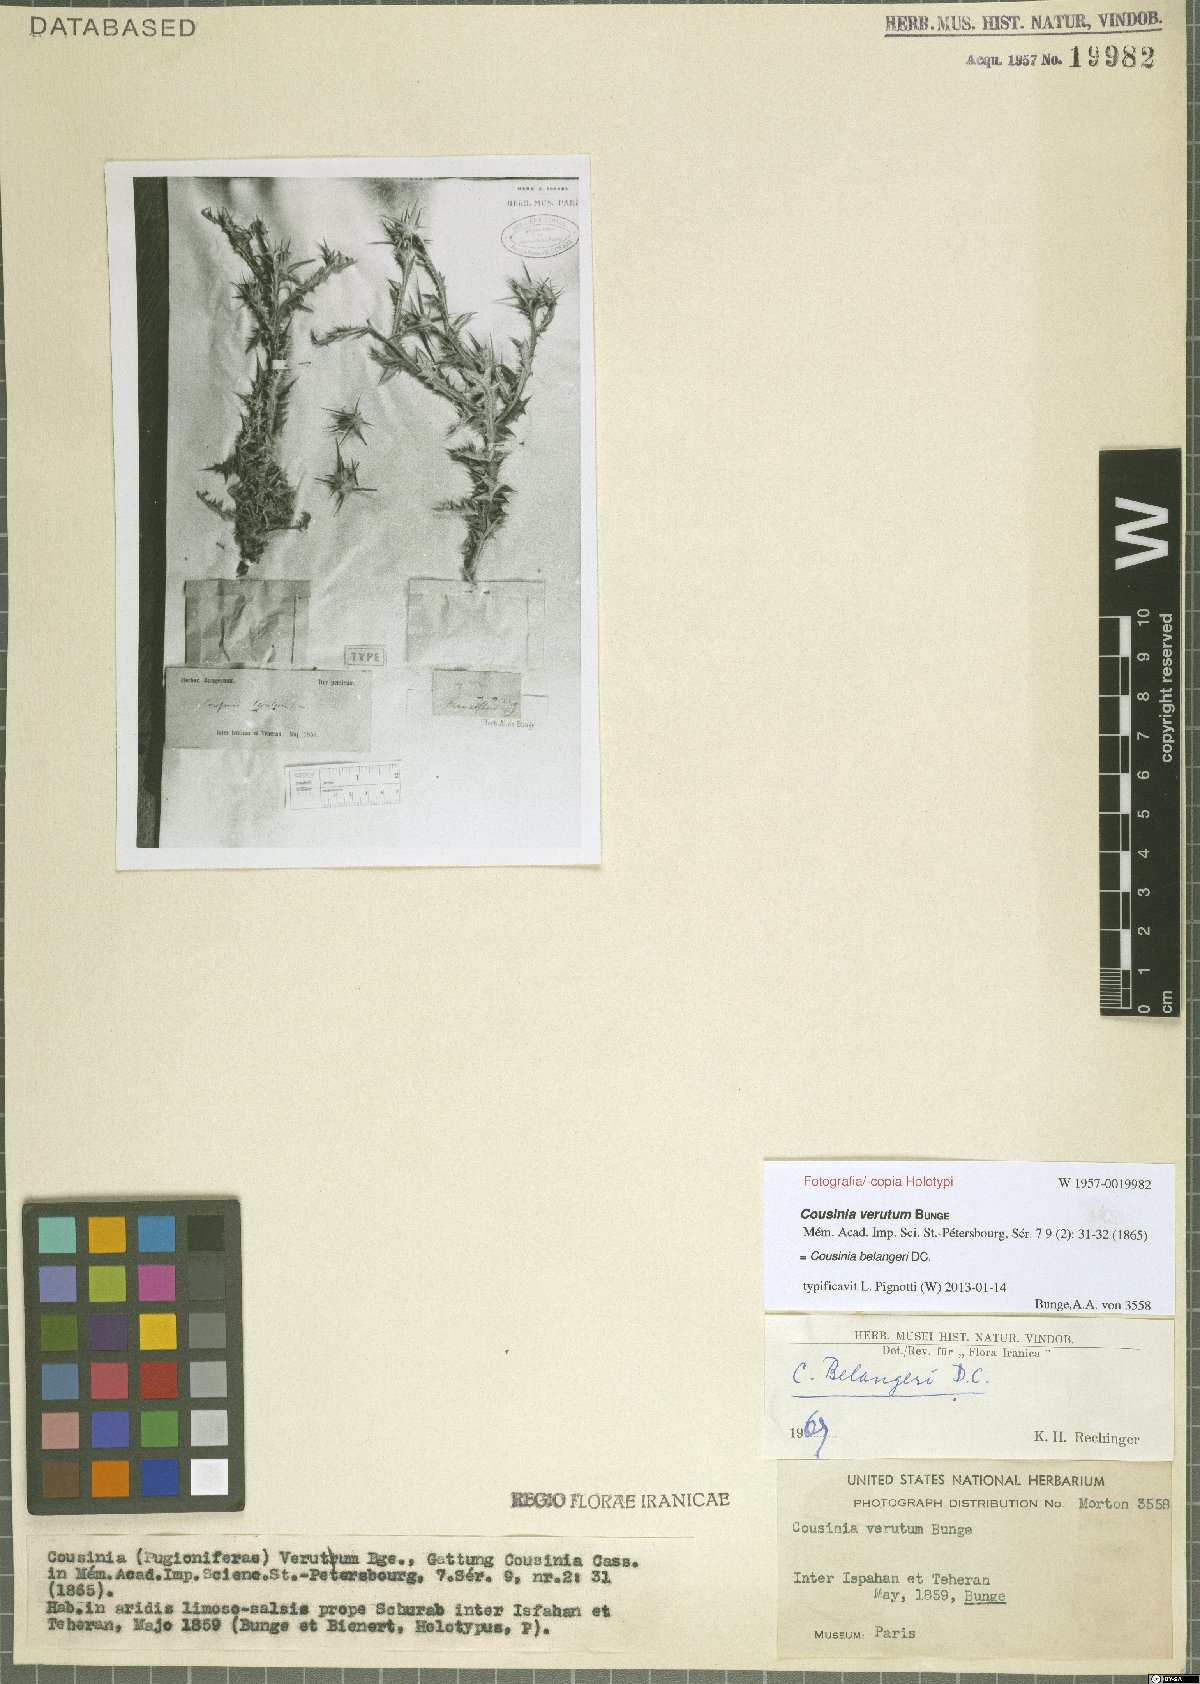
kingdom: Plantae
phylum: Tracheophyta
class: Magnoliopsida
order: Asterales
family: Asteraceae
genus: Cousinia
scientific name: Cousinia belangeri
